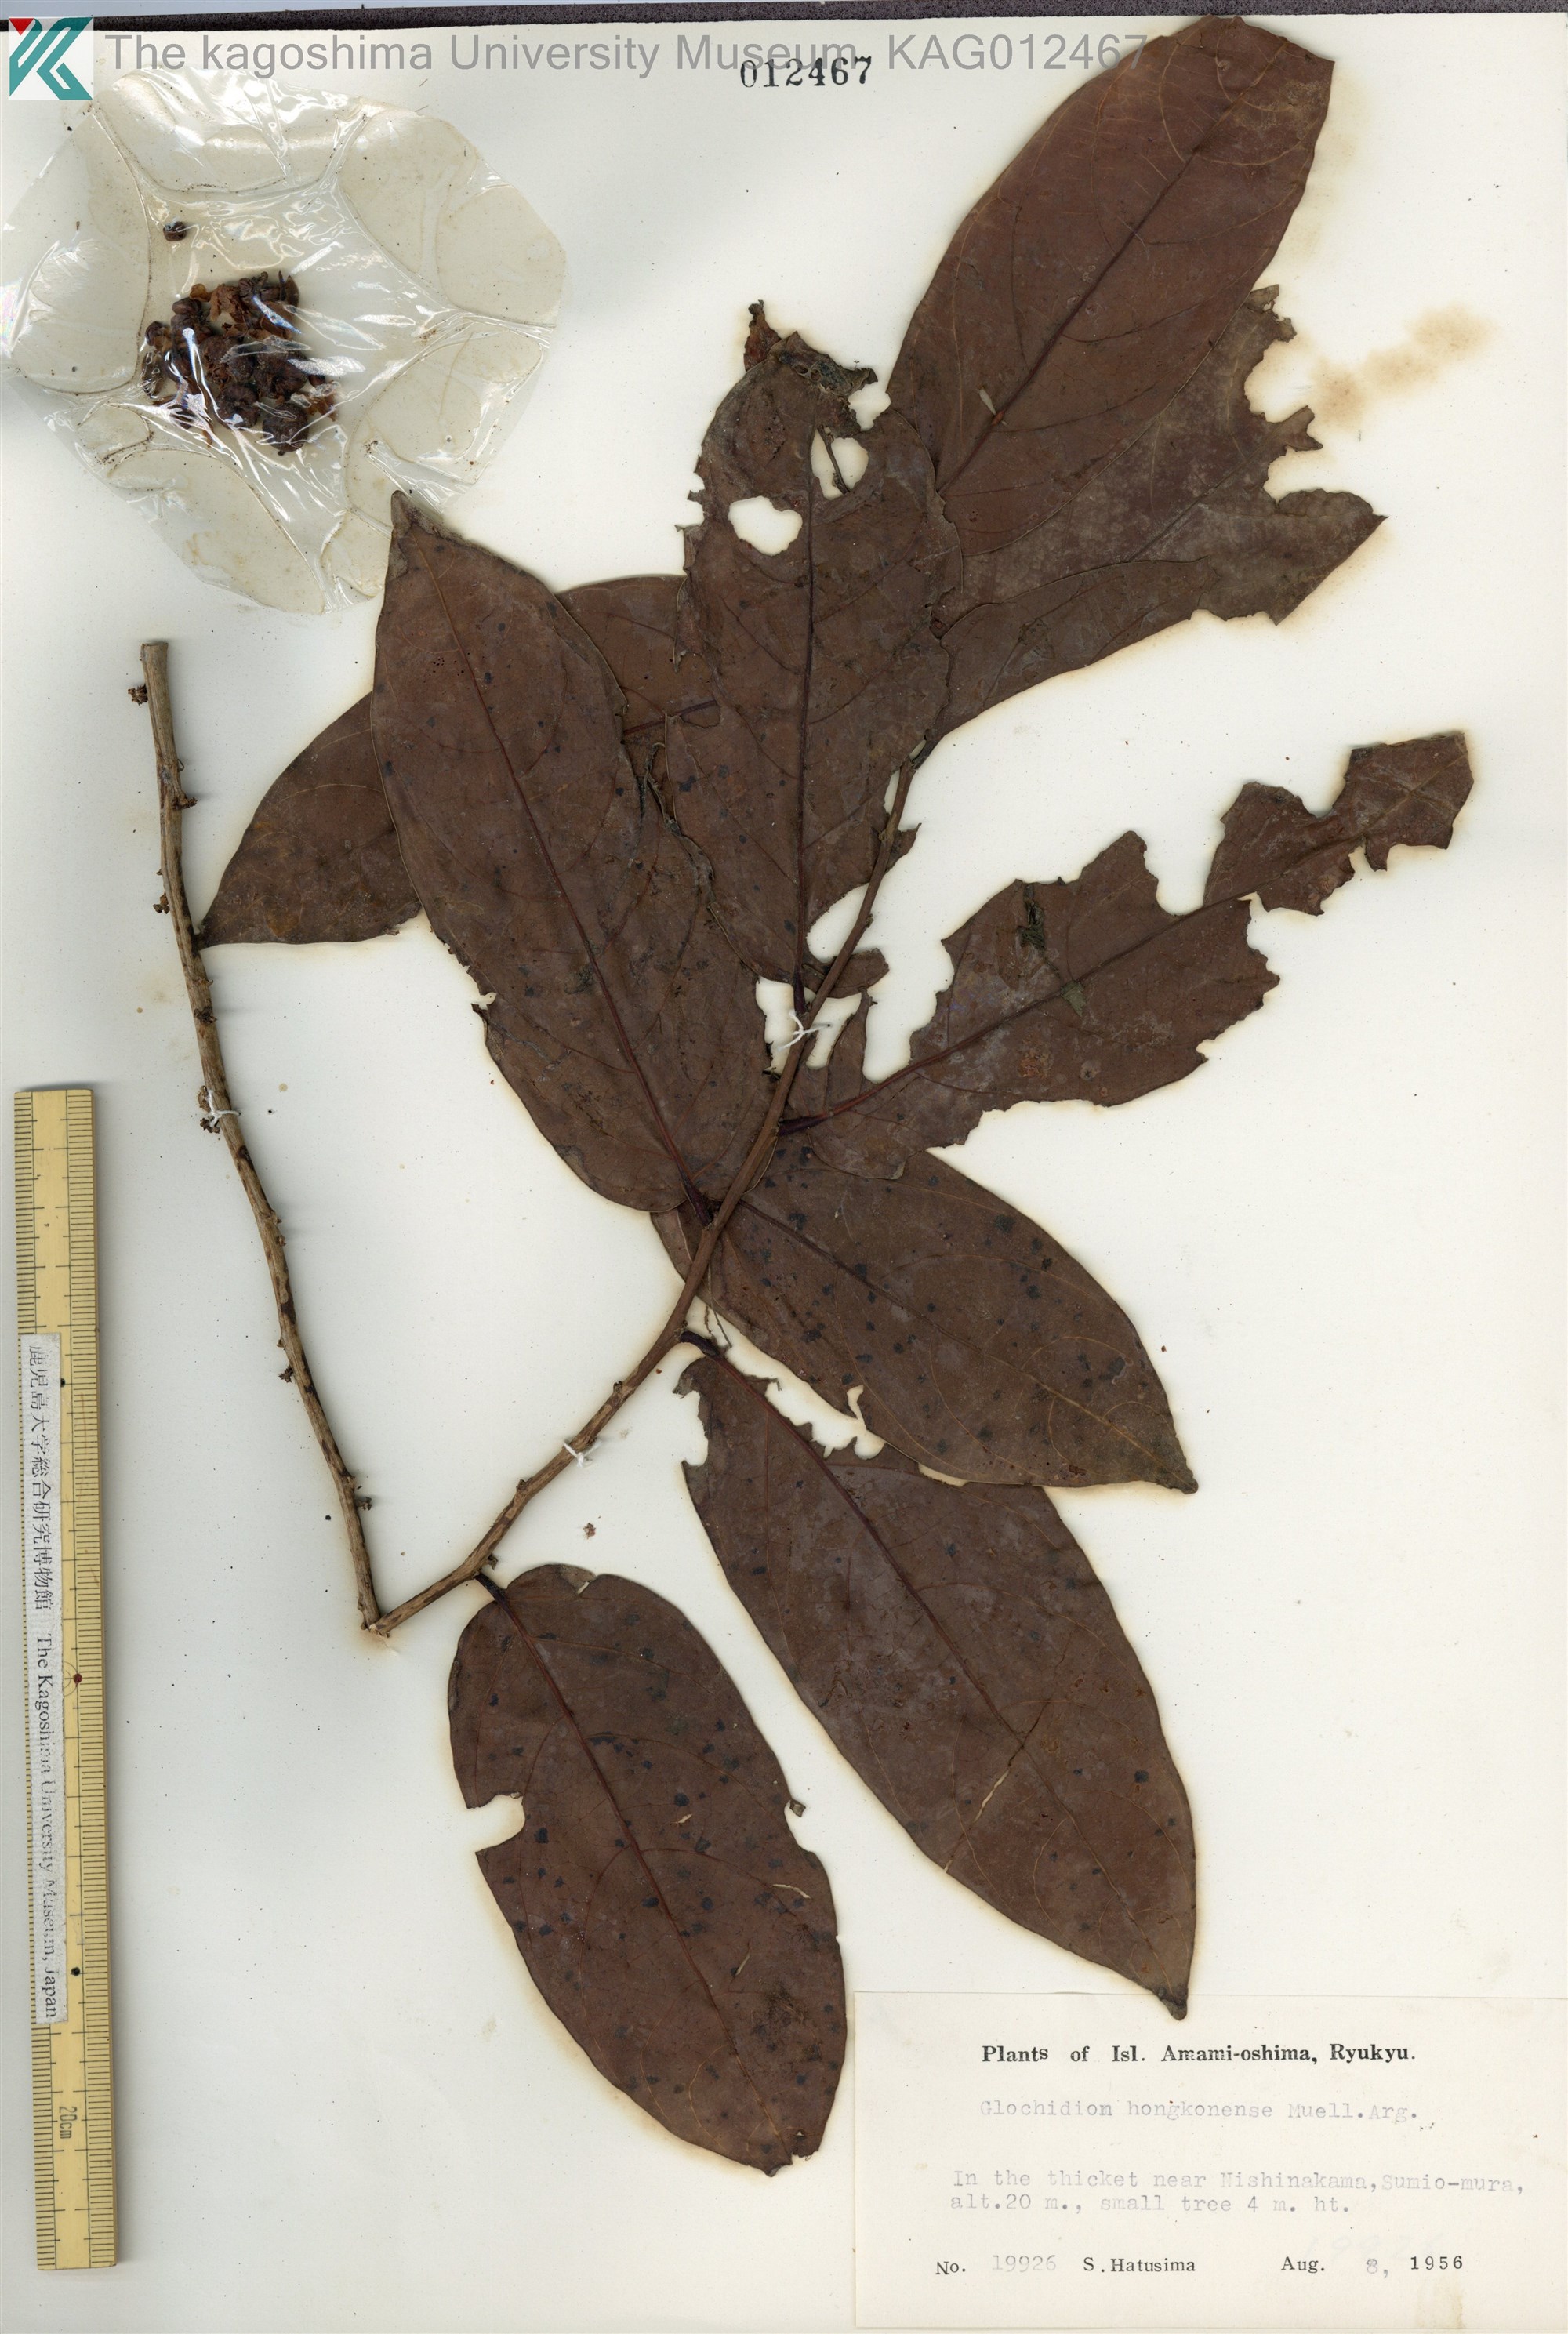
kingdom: Plantae
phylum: Tracheophyta
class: Magnoliopsida
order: Malpighiales
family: Phyllanthaceae
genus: Glochidion
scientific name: Glochidion zeylanicum
